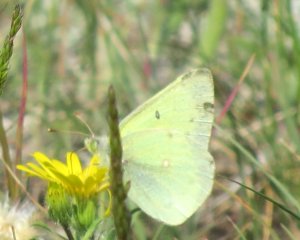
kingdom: Animalia
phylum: Arthropoda
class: Insecta
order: Lepidoptera
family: Pieridae
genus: Colias
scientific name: Colias gigantea
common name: Giant Sulphur
